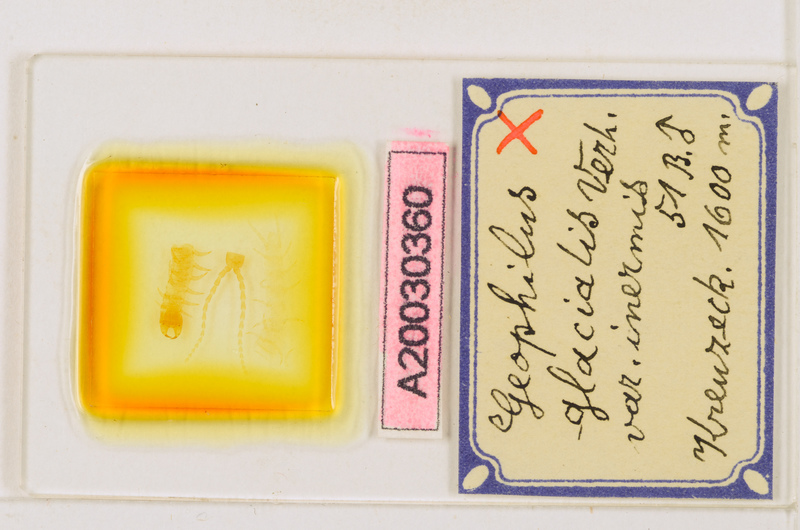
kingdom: Animalia
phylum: Arthropoda
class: Chilopoda
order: Geophilomorpha
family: Geophilidae
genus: Geophilus
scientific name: Geophilus insculptus
